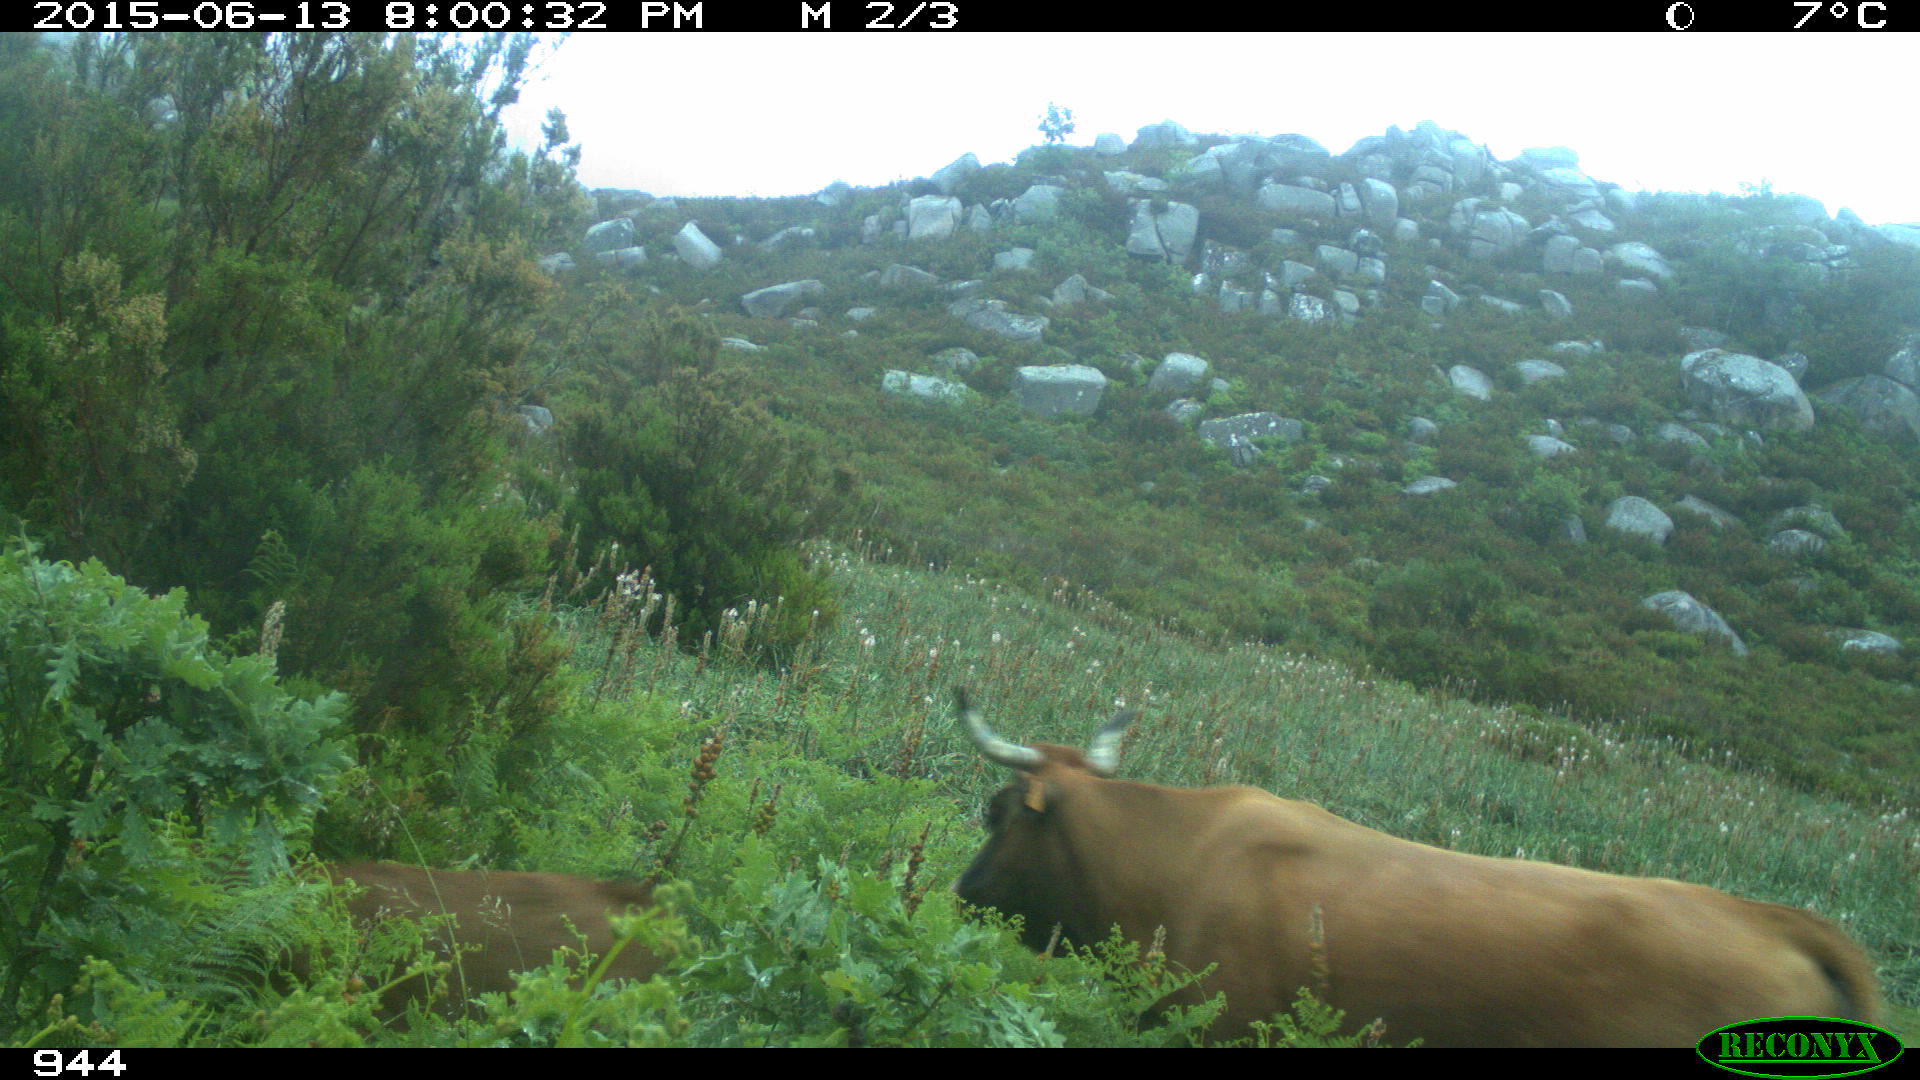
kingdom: Animalia
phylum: Chordata
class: Mammalia
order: Artiodactyla
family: Bovidae
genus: Bos
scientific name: Bos taurus
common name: Domesticated cattle
